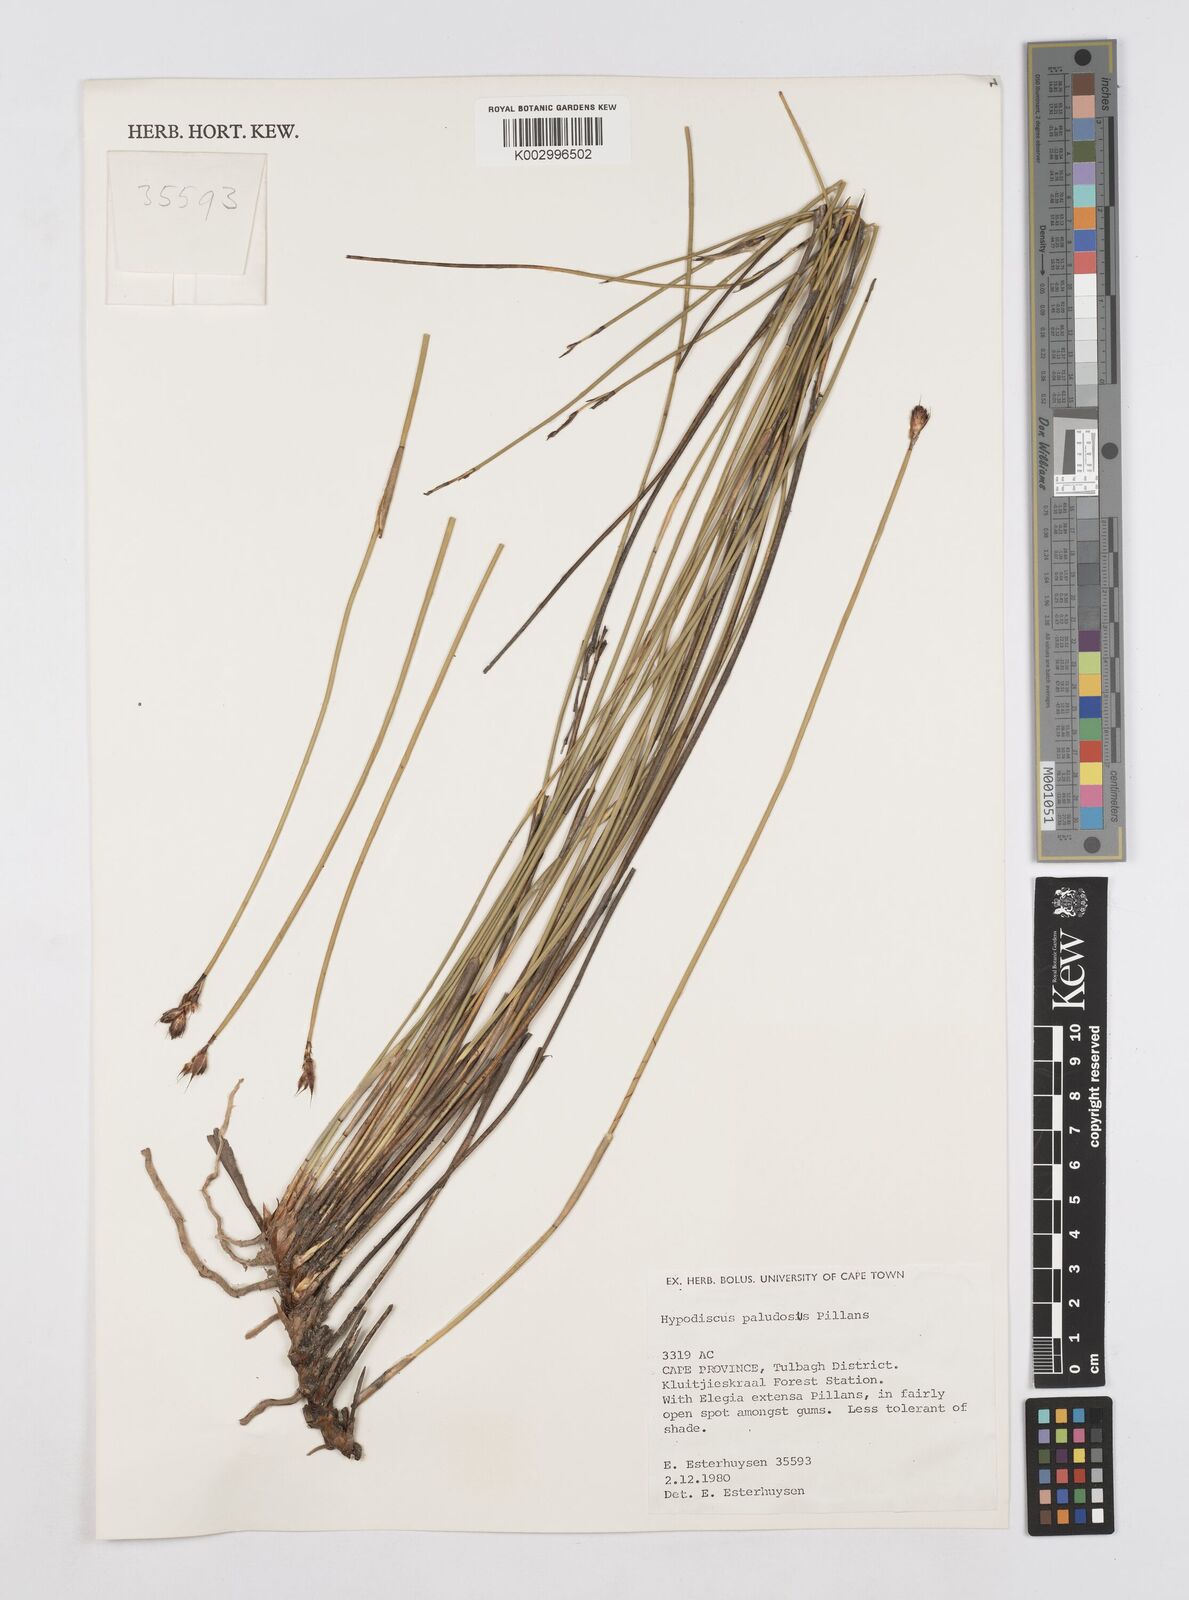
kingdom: Plantae
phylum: Tracheophyta
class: Liliopsida
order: Poales
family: Restionaceae
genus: Hypodiscus
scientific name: Hypodiscus rugosus
